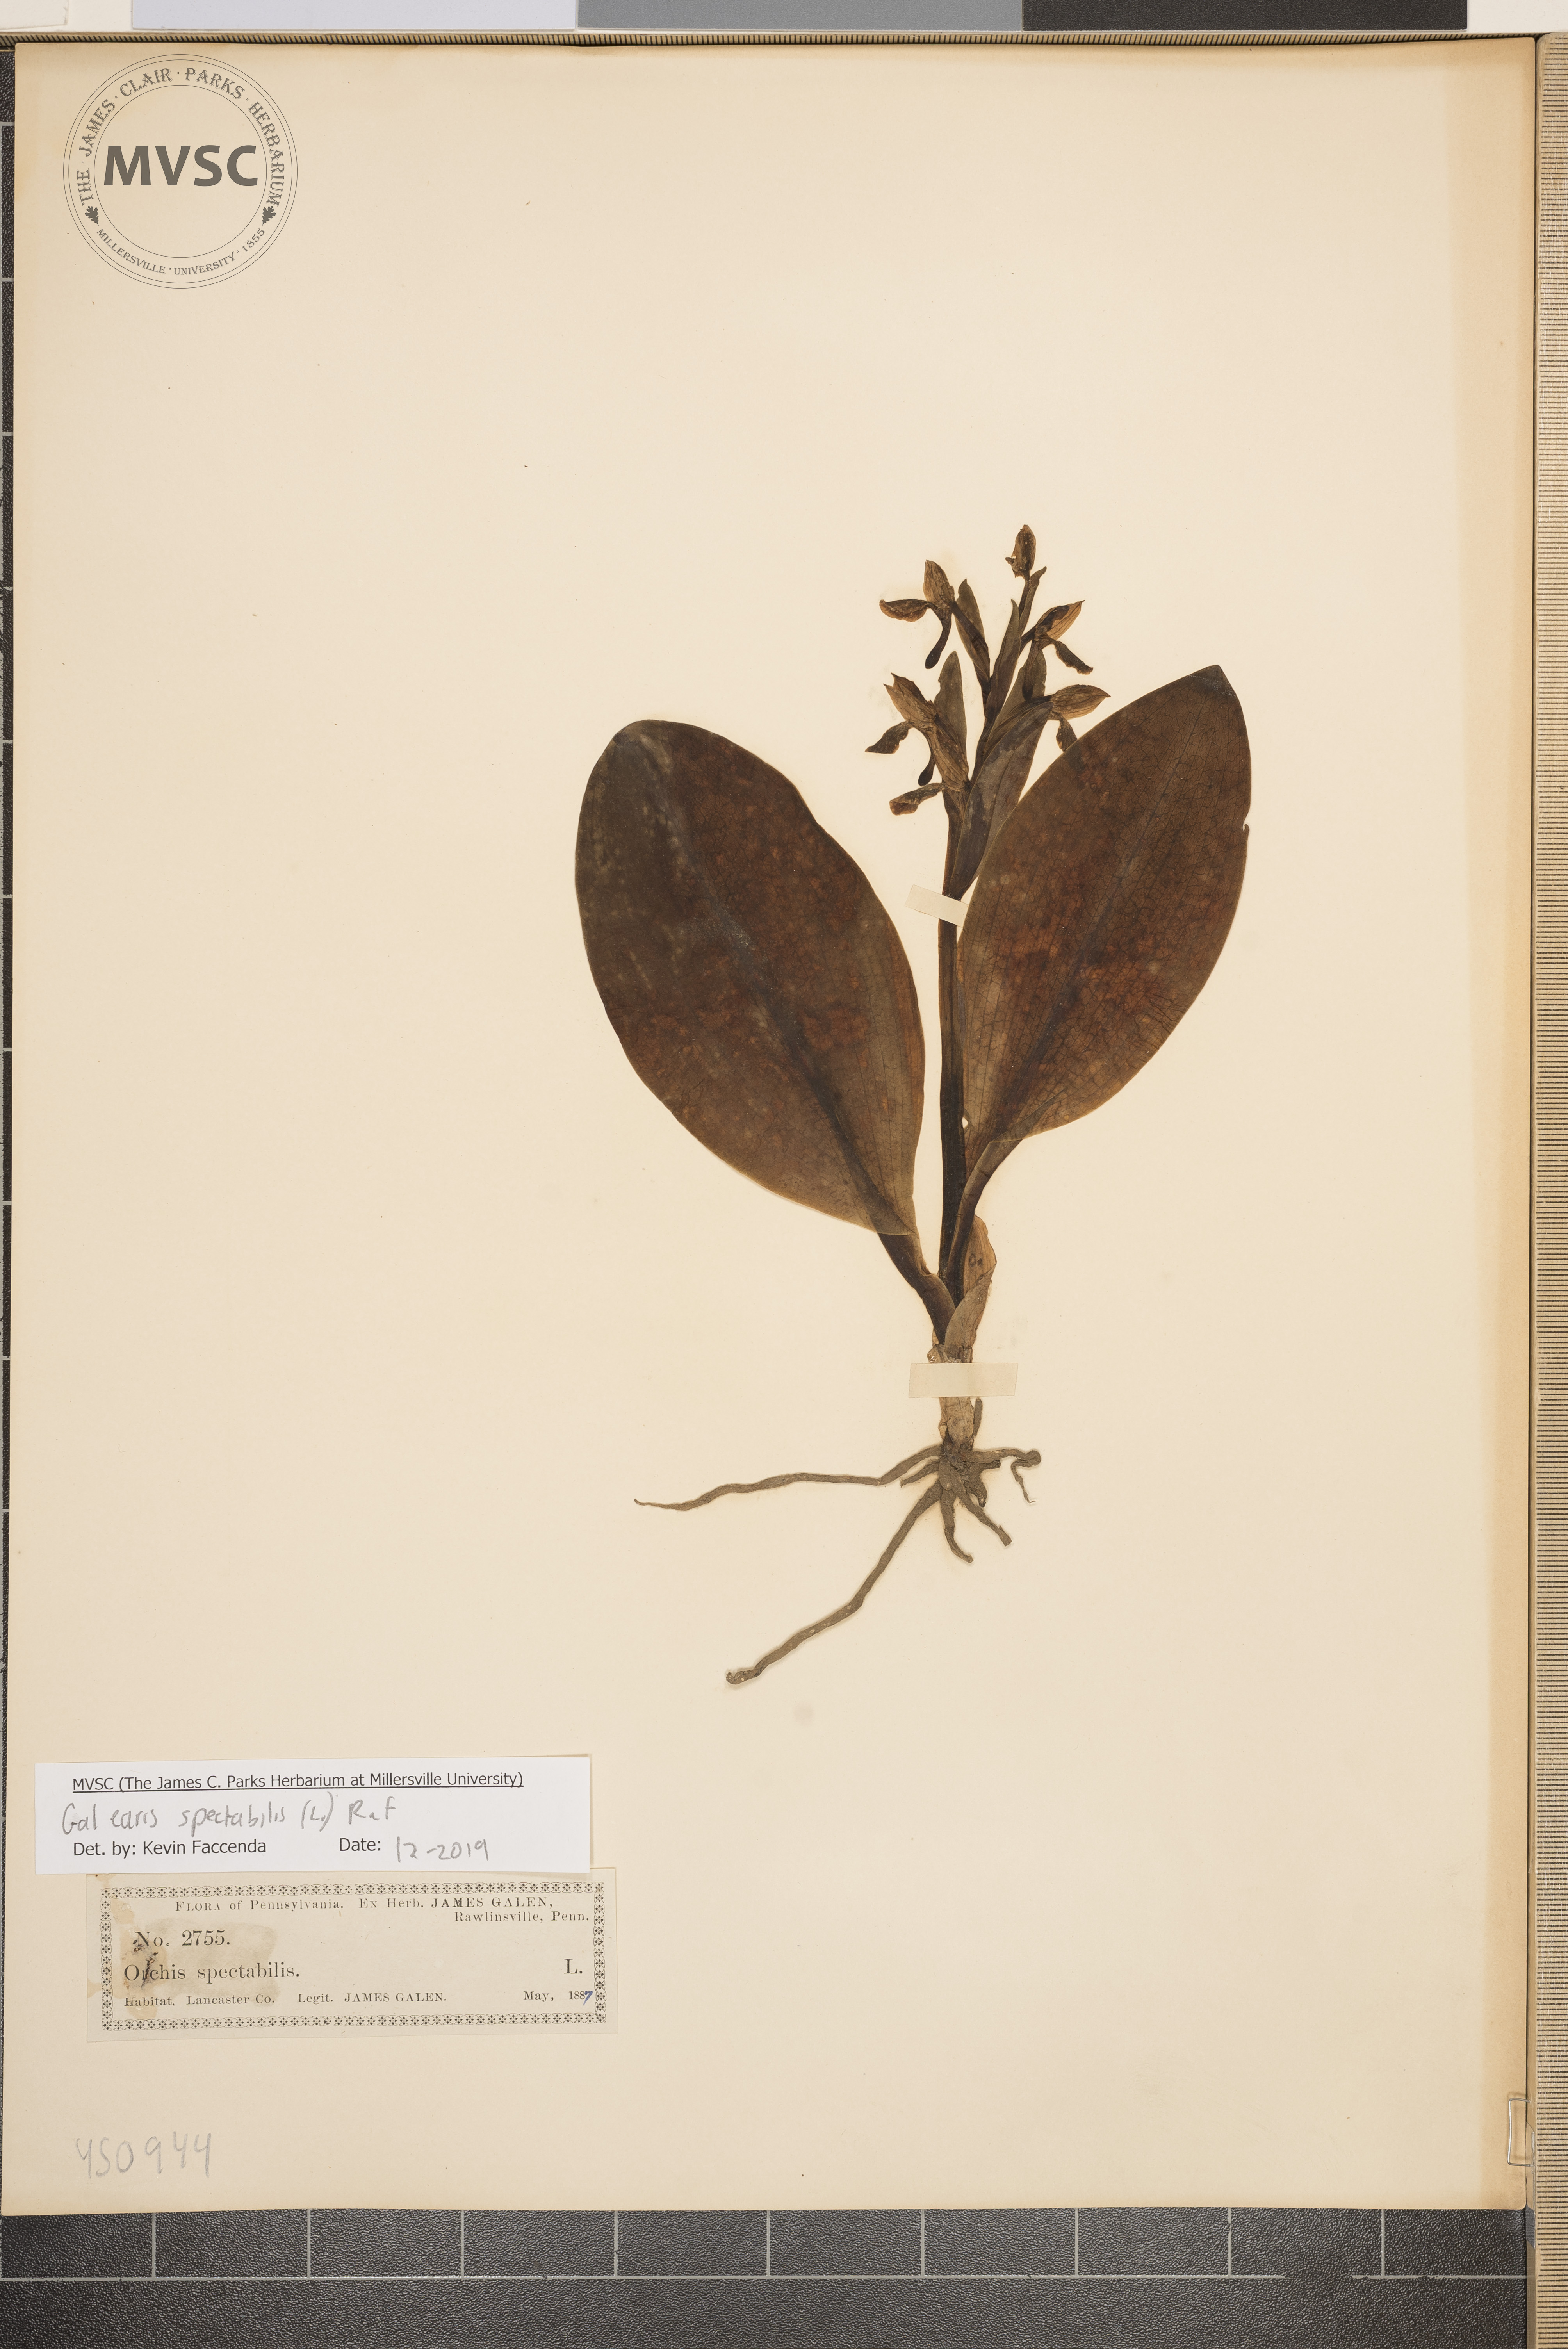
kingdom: Plantae
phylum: Tracheophyta
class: Liliopsida
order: Asparagales
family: Orchidaceae
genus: Galearis
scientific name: Galearis spectabilis
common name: Purple-hooded orchis
